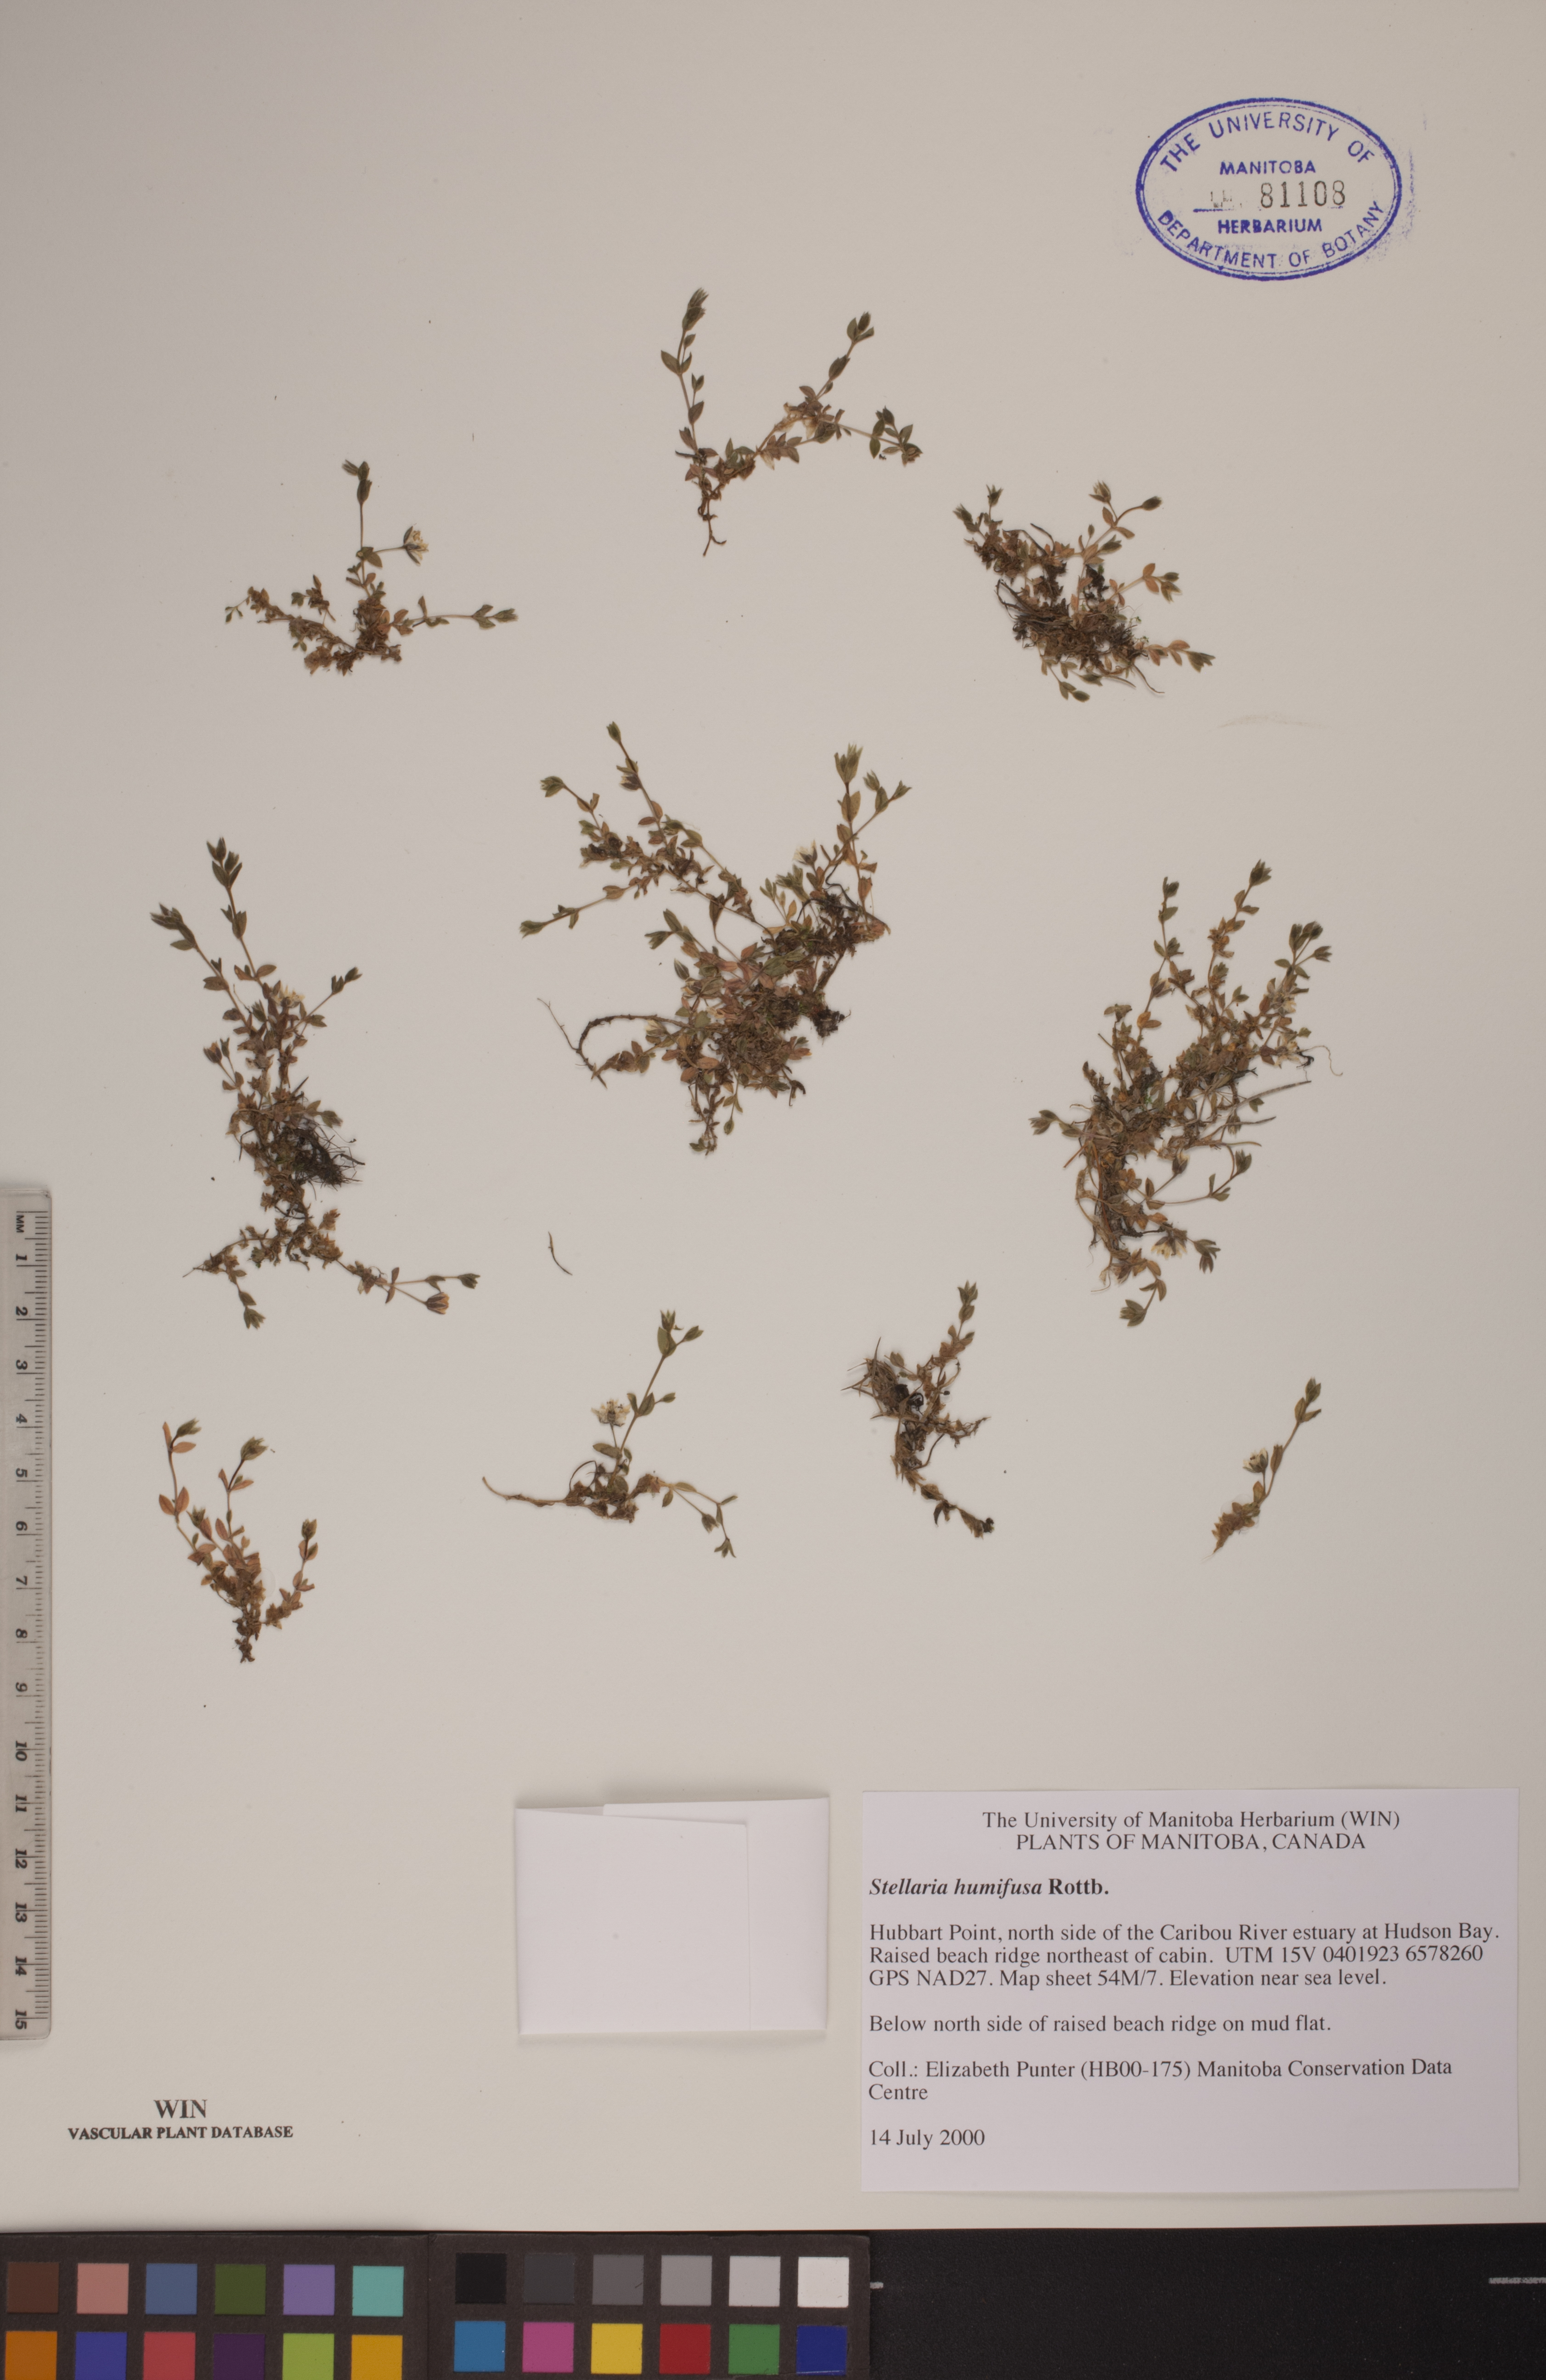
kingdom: Plantae
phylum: Tracheophyta
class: Magnoliopsida
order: Caryophyllales
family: Caryophyllaceae
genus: Stellaria
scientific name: Stellaria humifusa
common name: Creeping starwort
